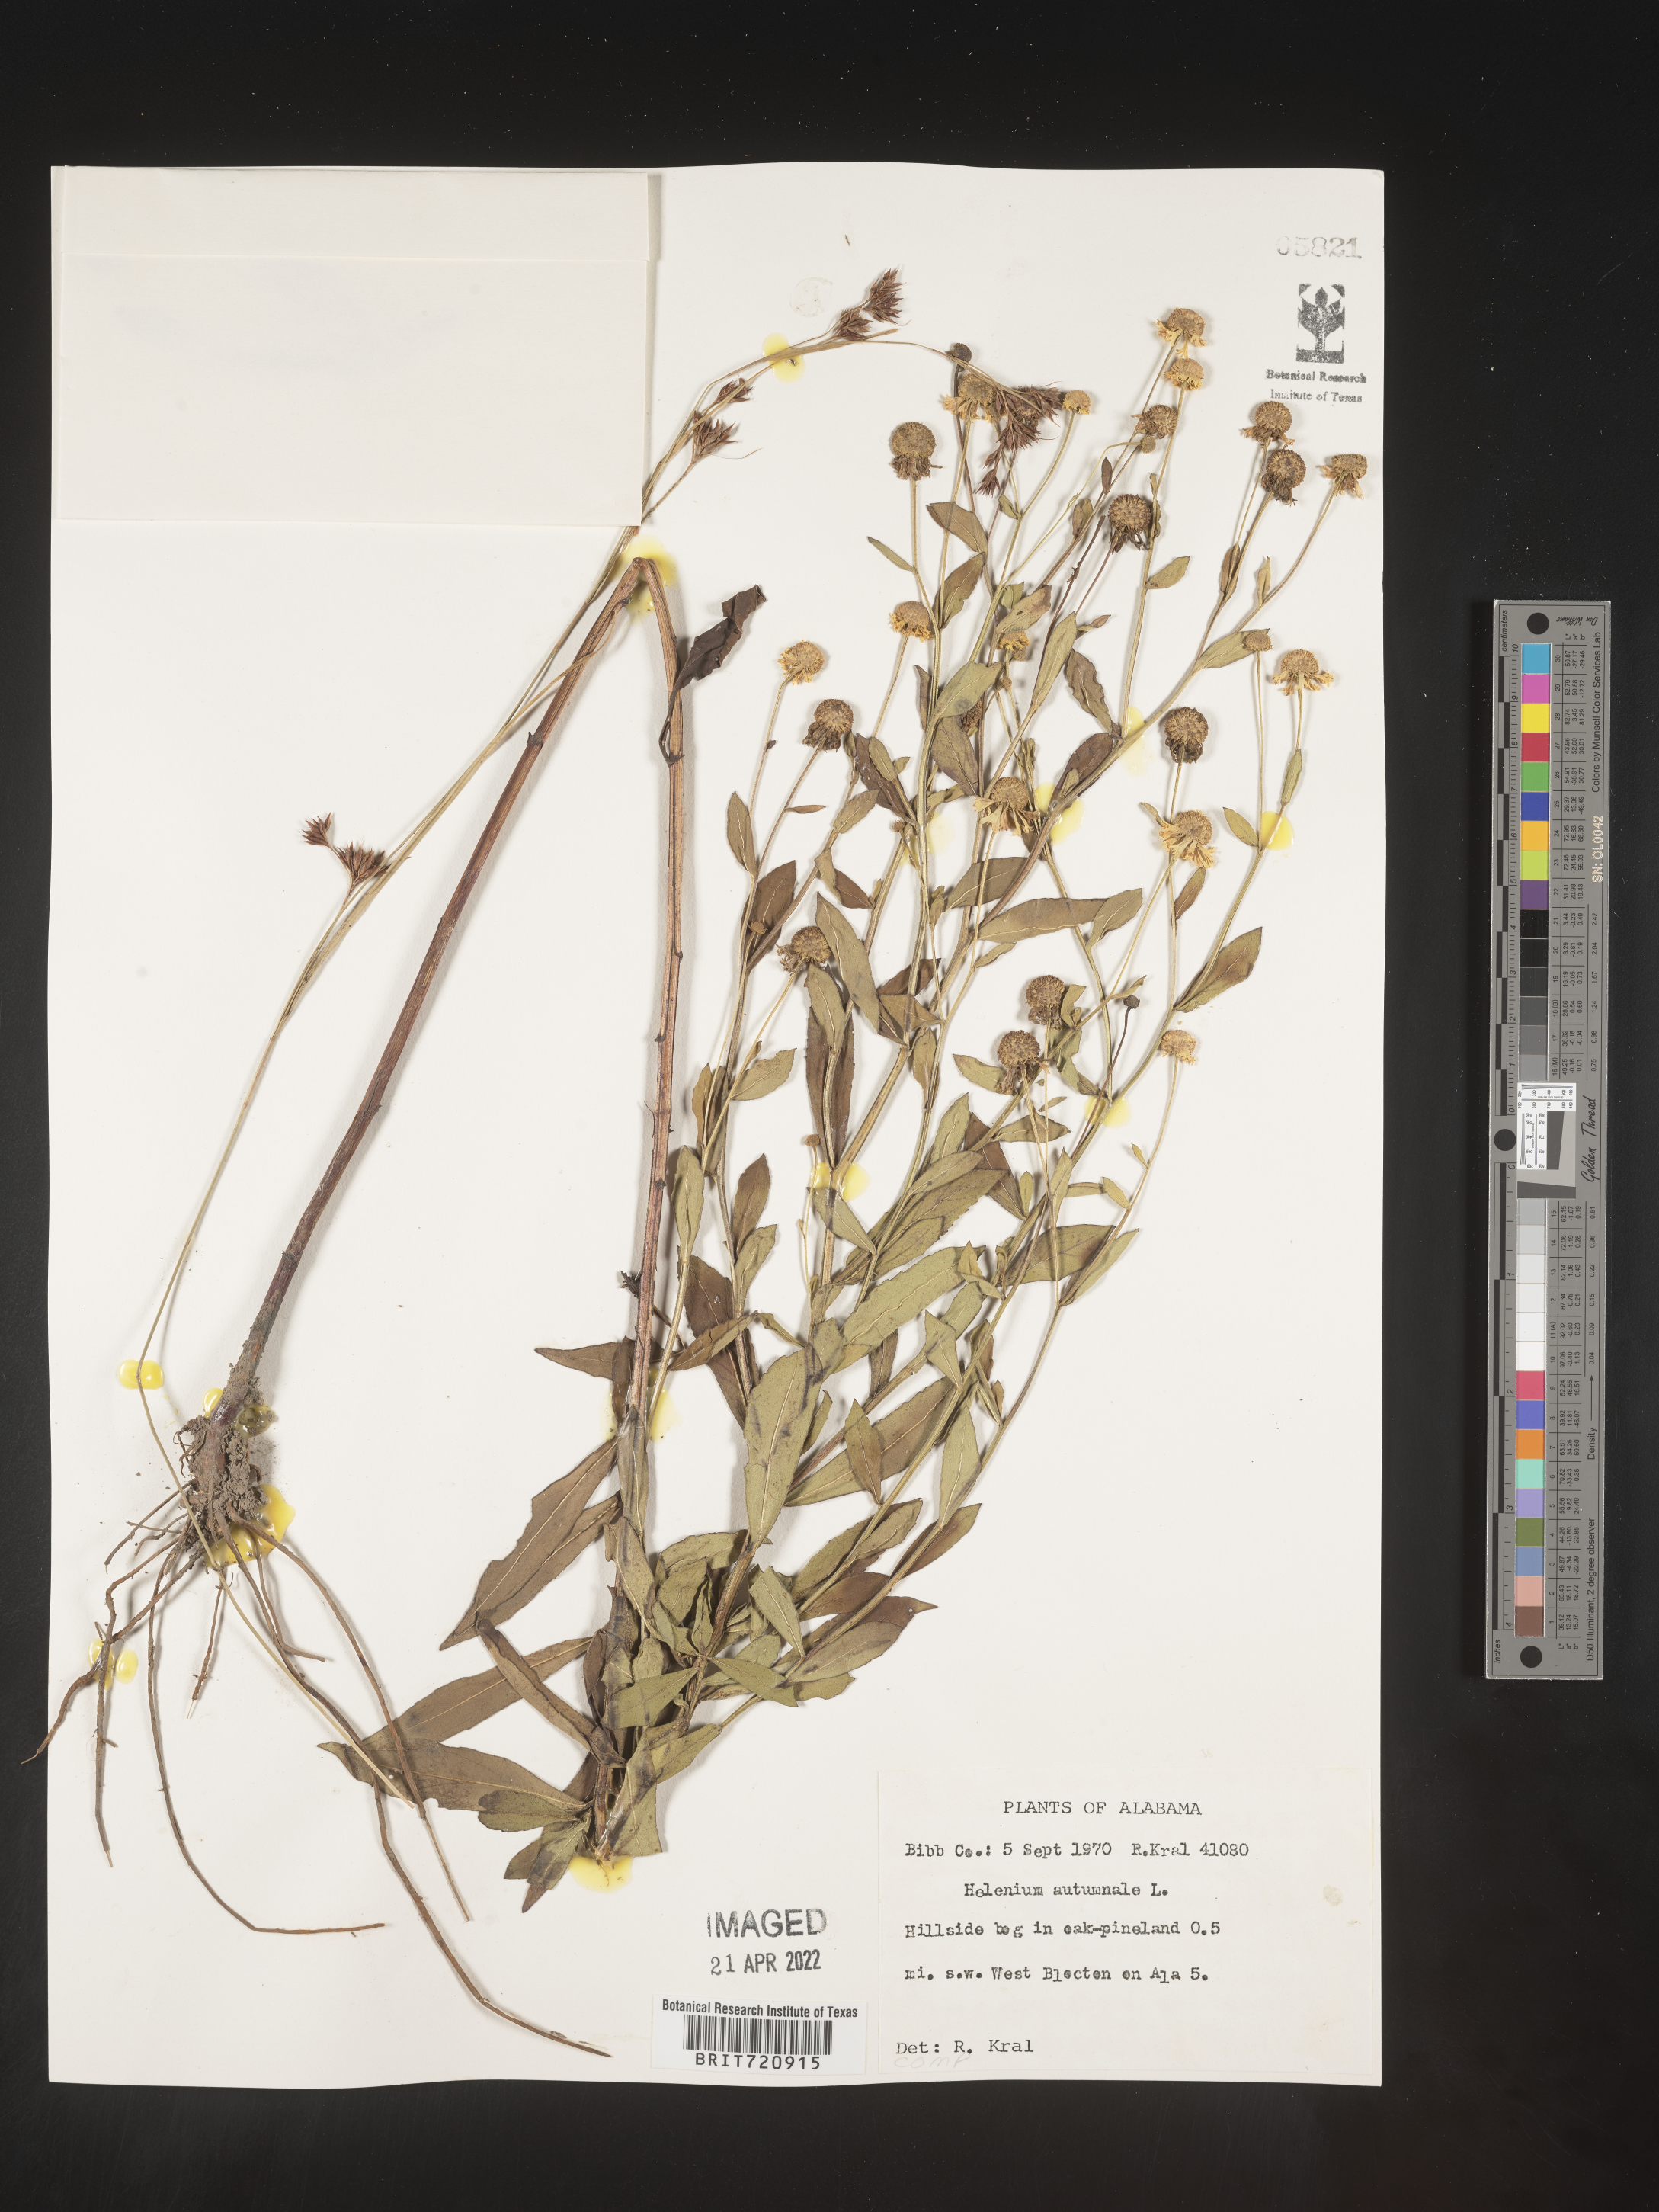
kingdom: Plantae
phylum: Tracheophyta
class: Magnoliopsida
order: Asterales
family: Asteraceae
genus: Helenium
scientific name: Helenium autumnale
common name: Sneezeweed
